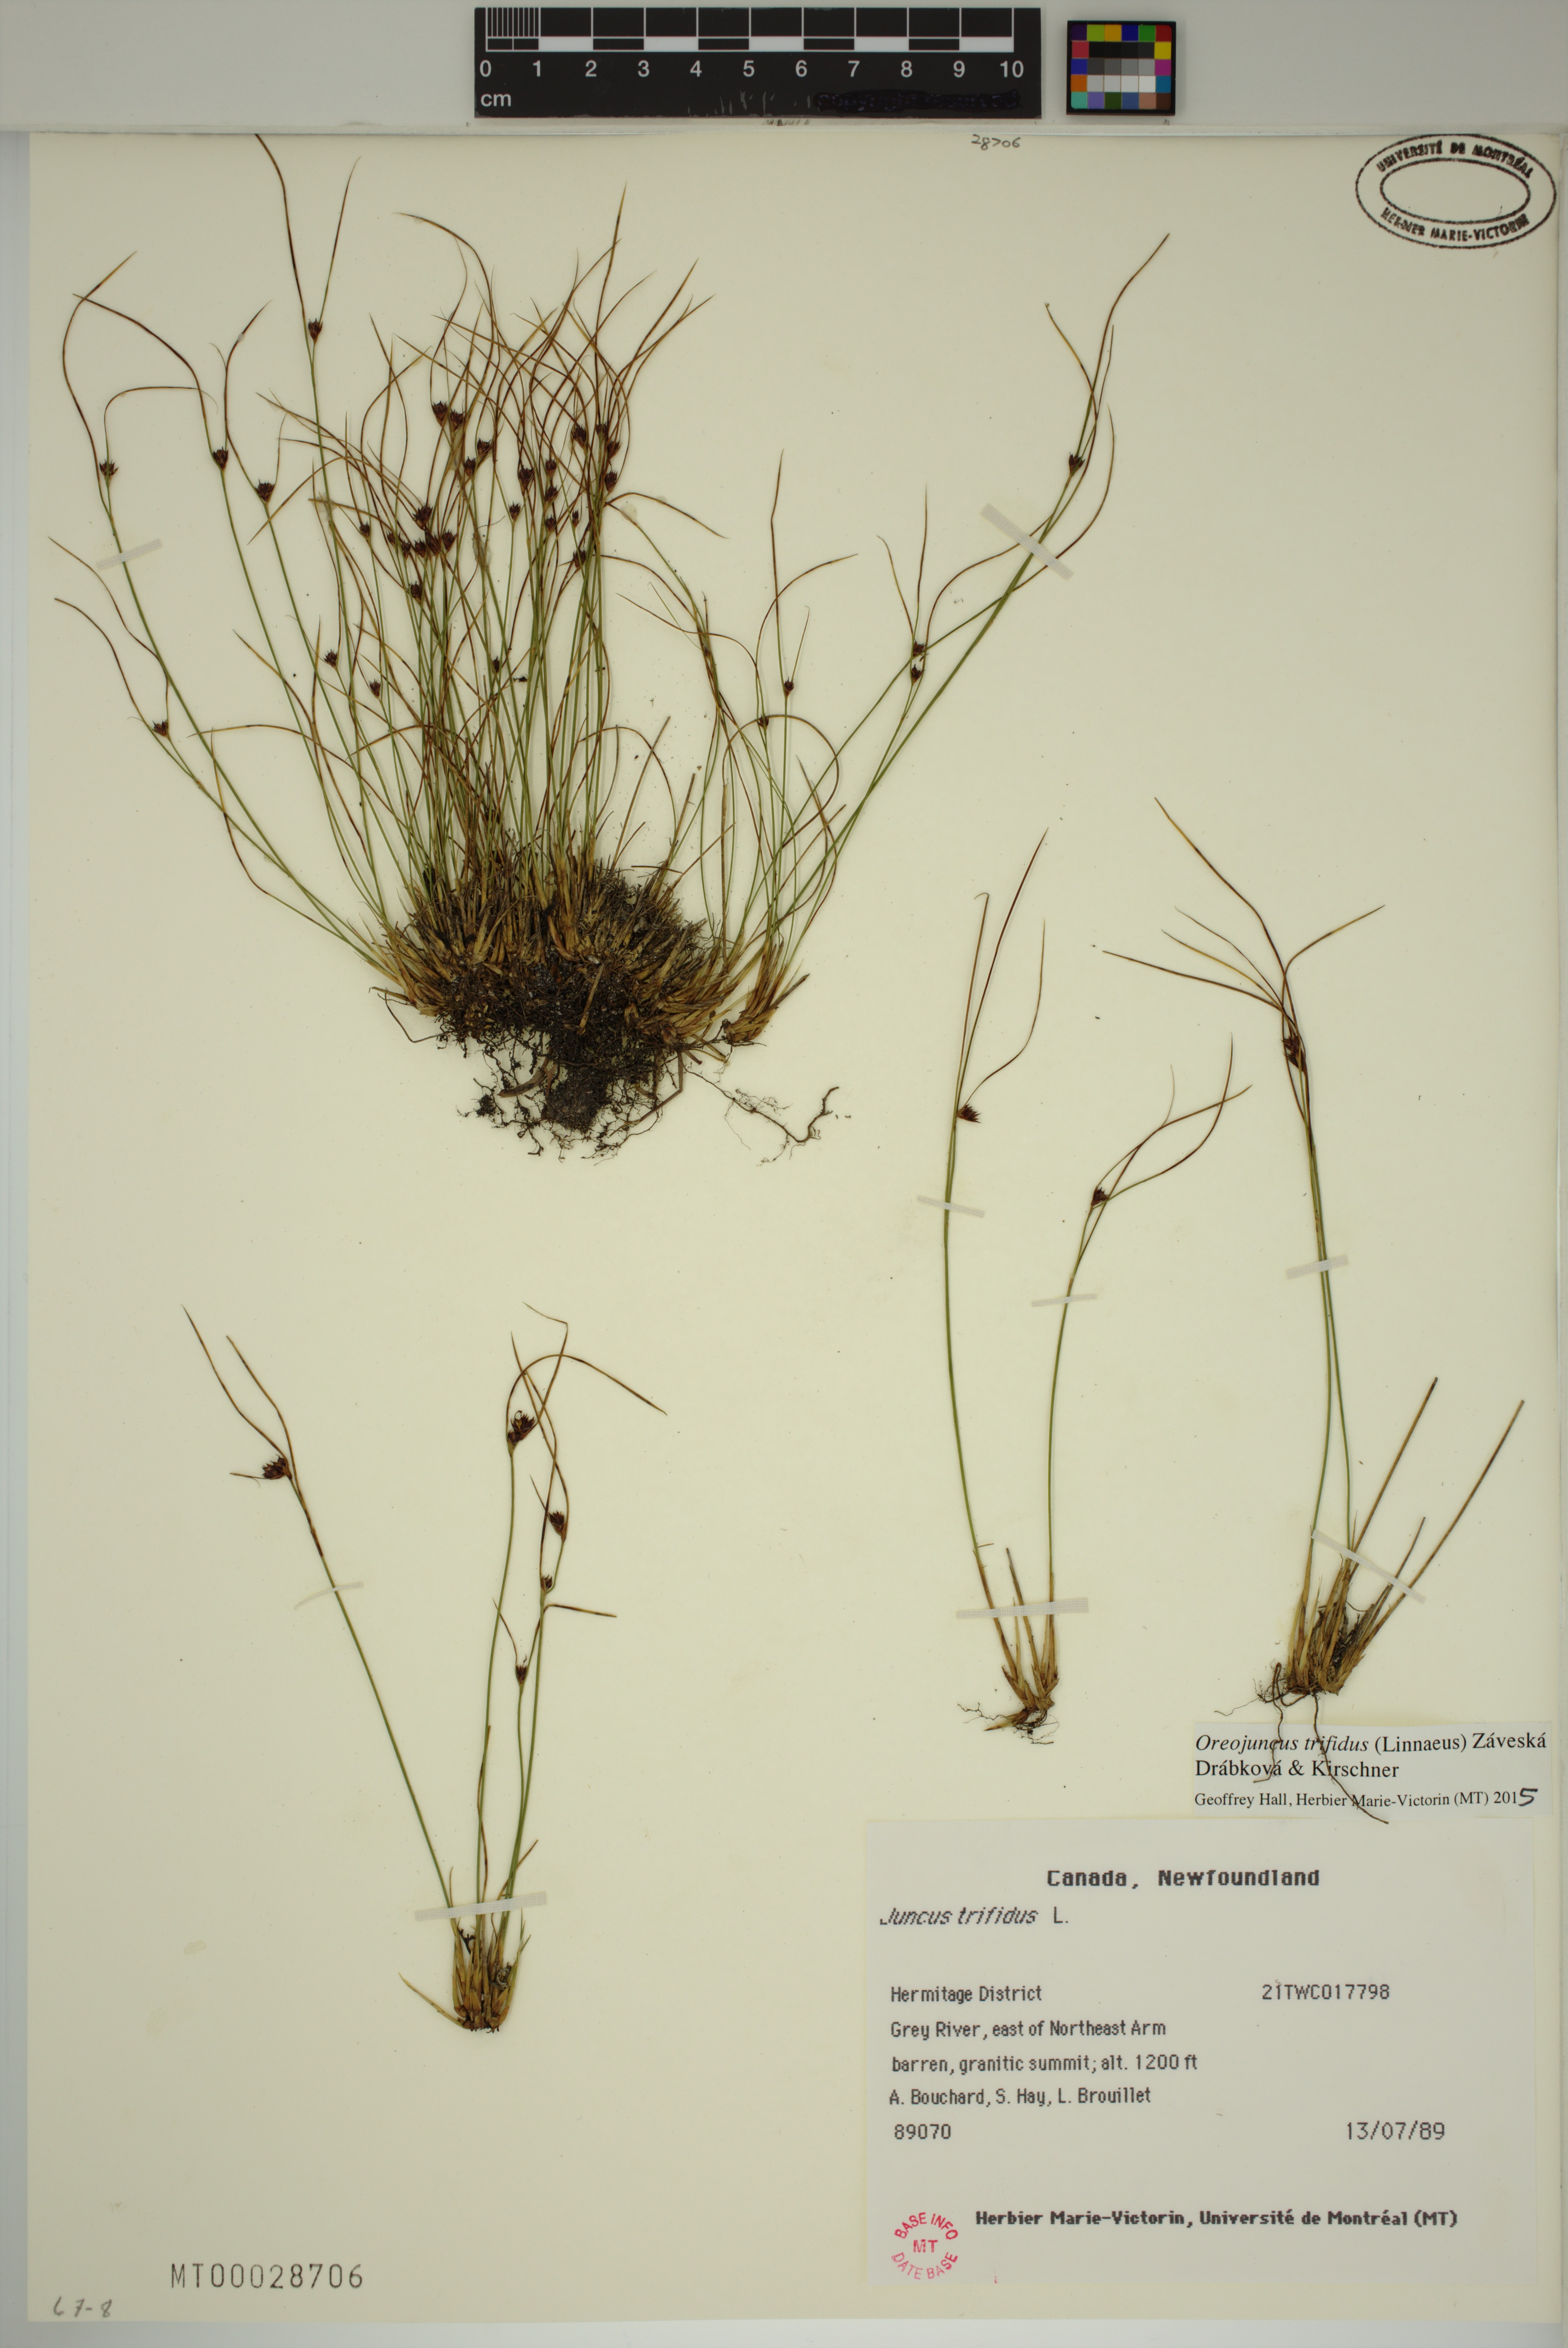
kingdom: Plantae
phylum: Tracheophyta
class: Liliopsida
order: Poales
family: Juncaceae
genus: Oreojuncus
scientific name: Oreojuncus trifidus
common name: Highland rush
